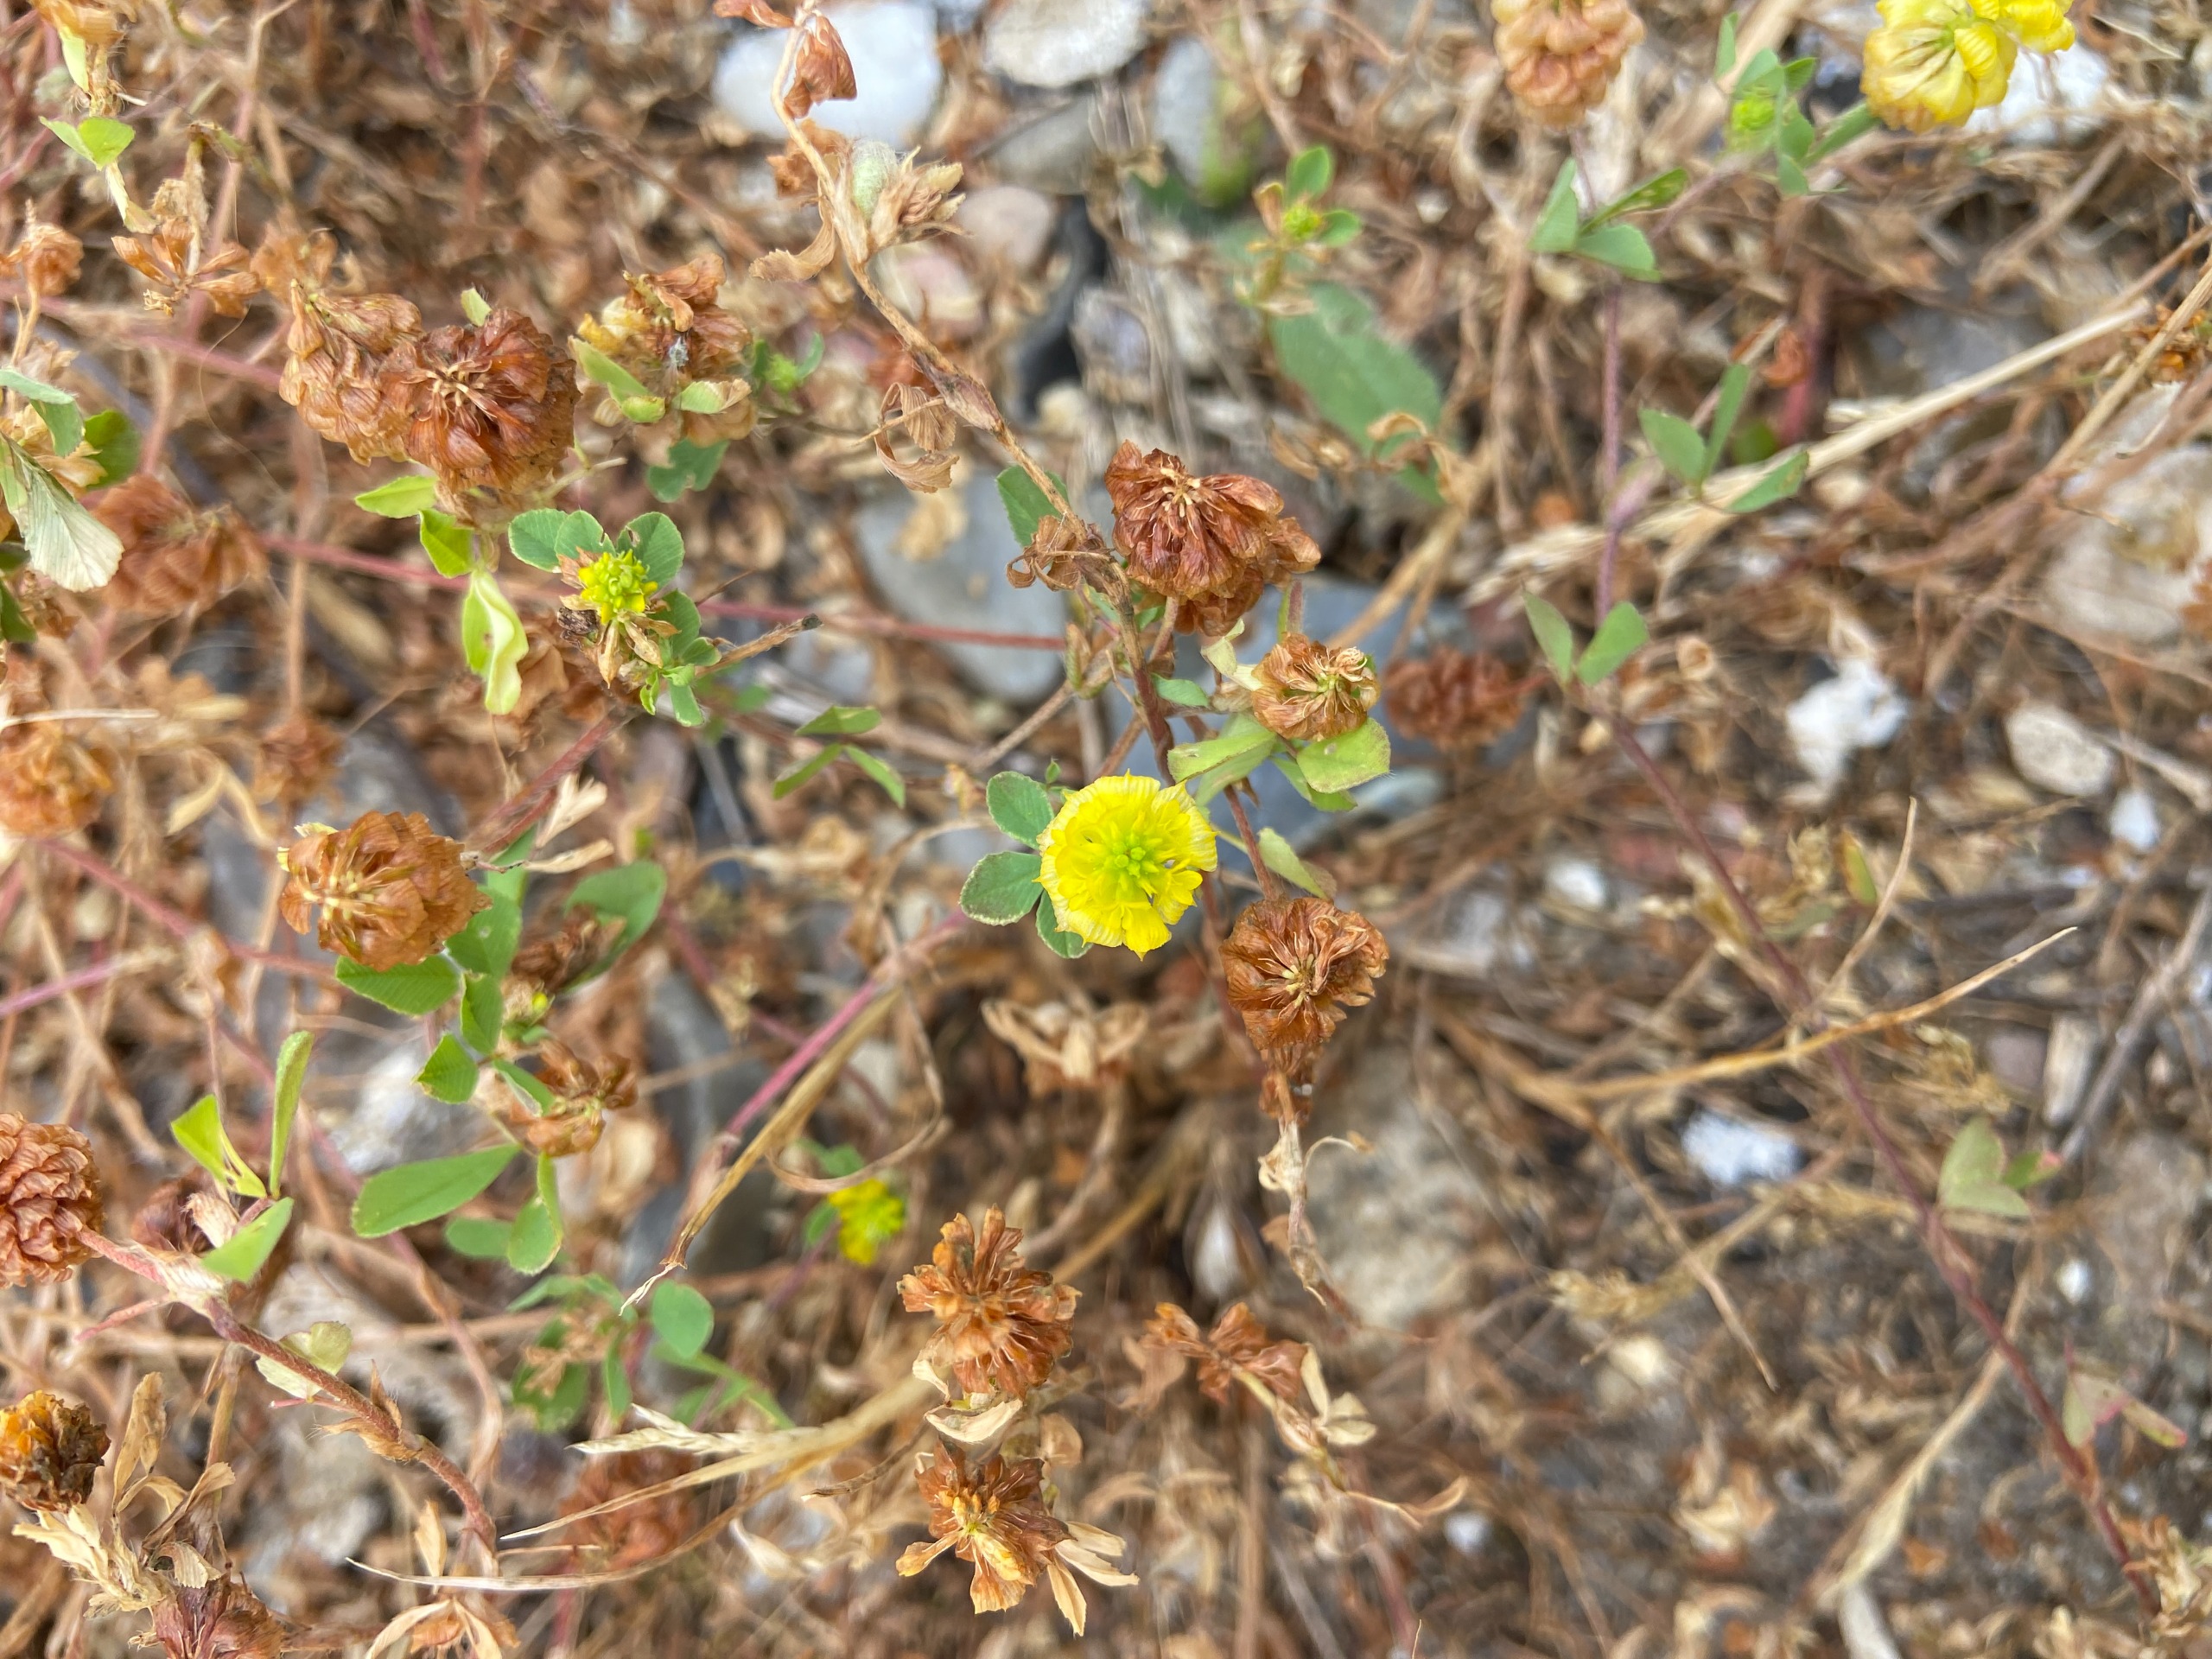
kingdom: Plantae
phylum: Tracheophyta
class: Magnoliopsida
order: Fabales
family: Fabaceae
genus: Trifolium
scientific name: Trifolium campestre
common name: Gul kløver
